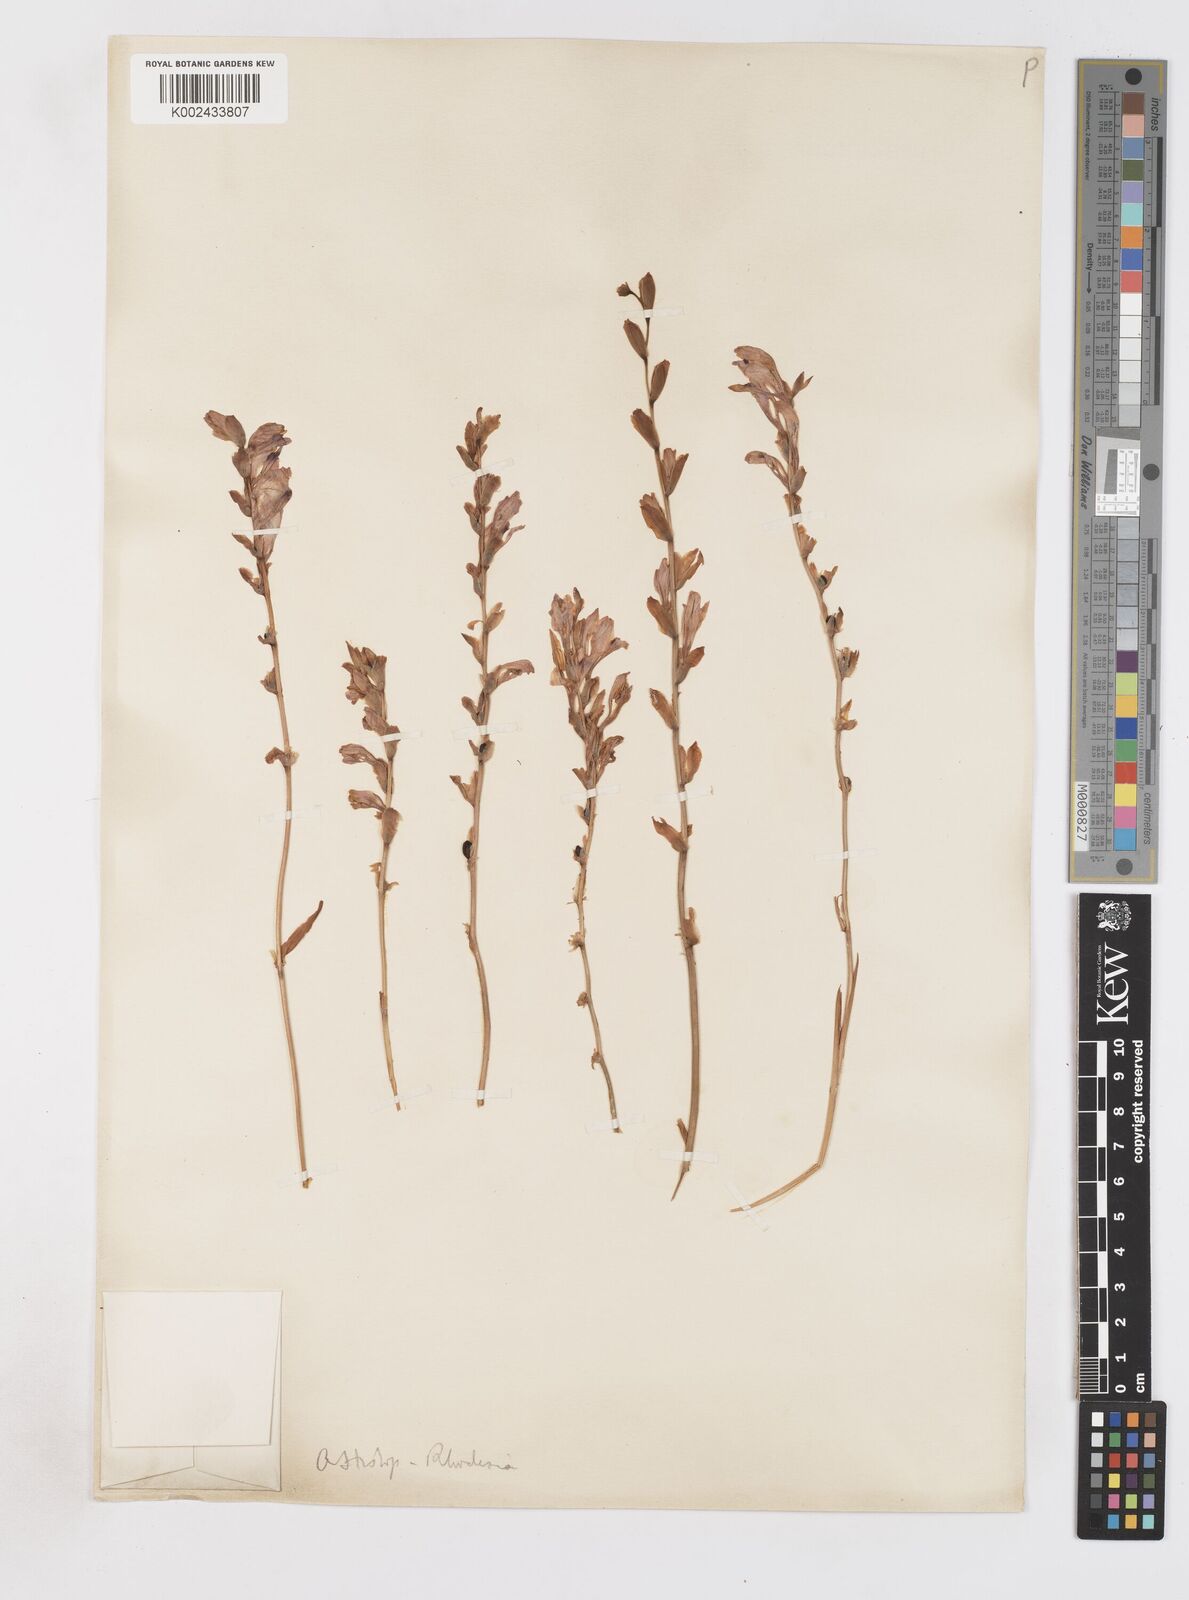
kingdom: Plantae
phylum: Tracheophyta
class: Liliopsida
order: Asparagales
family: Iridaceae
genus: Gladiolus
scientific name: Gladiolus crassifolius
